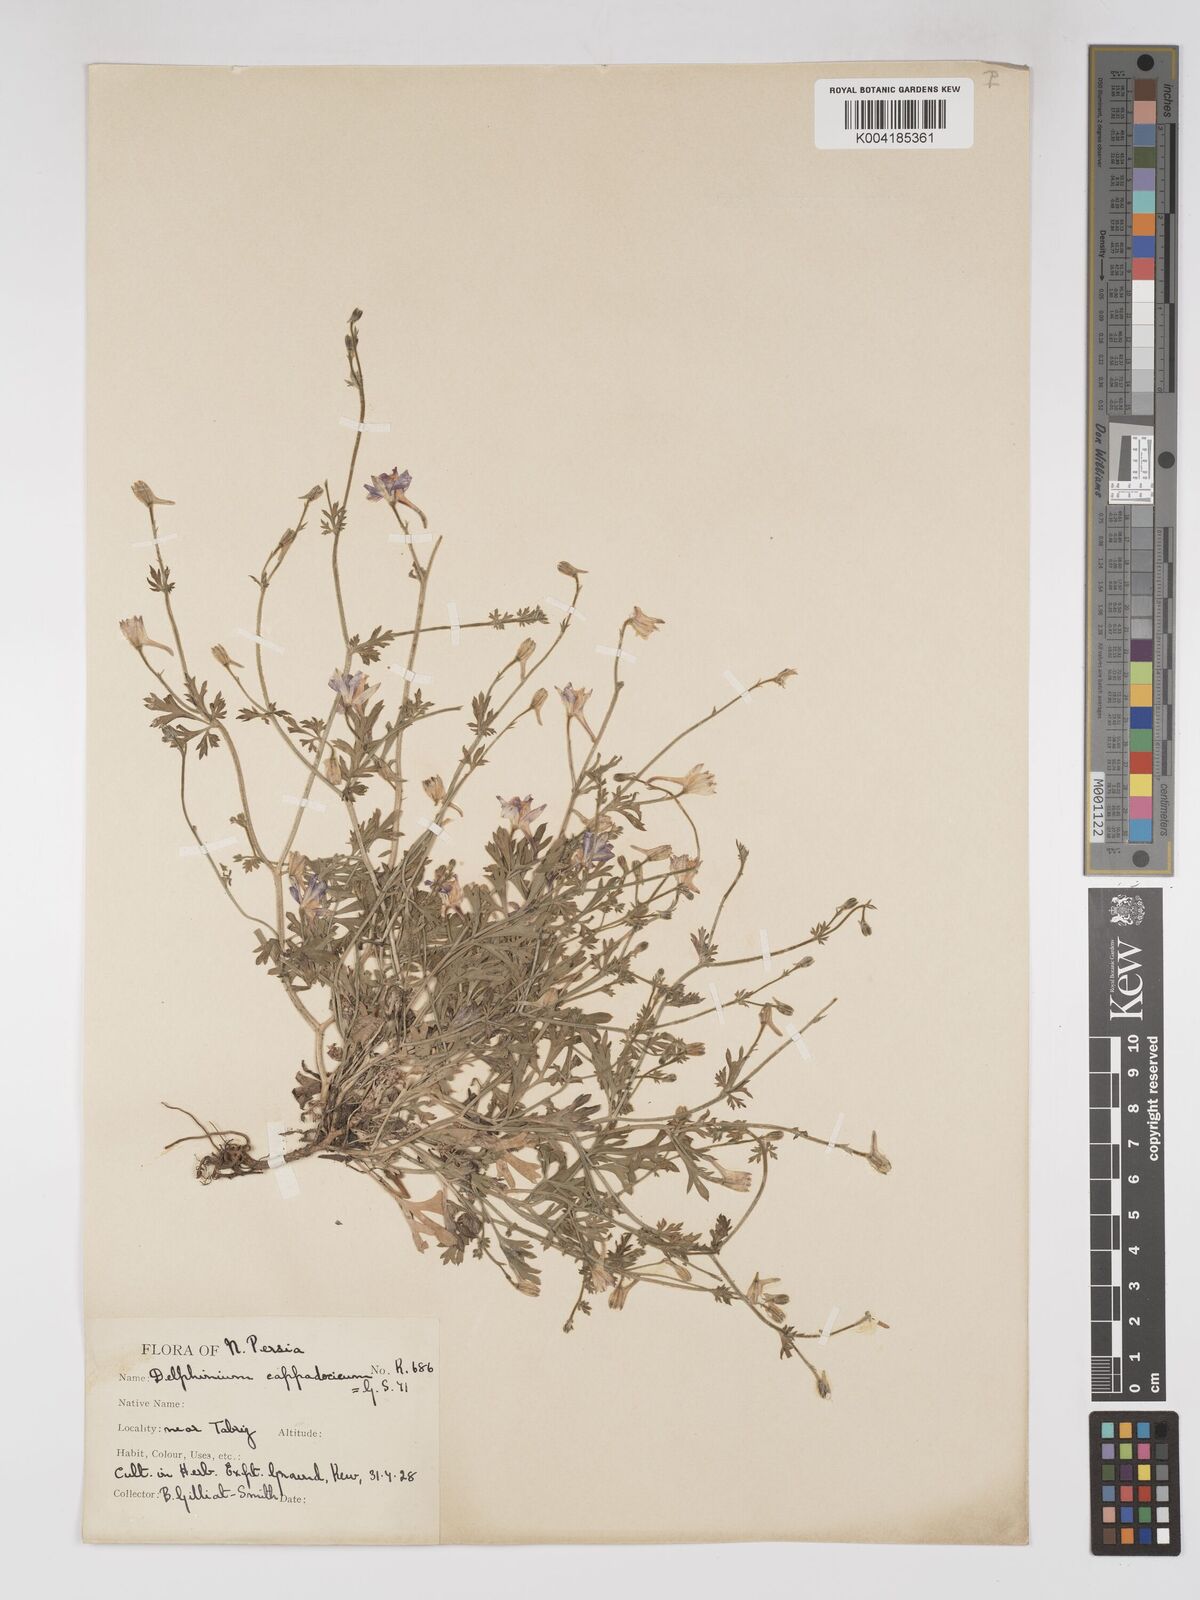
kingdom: Plantae
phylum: Tracheophyta
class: Magnoliopsida
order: Ranunculales
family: Ranunculaceae
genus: Delphinium
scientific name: Delphinium oliverianum
